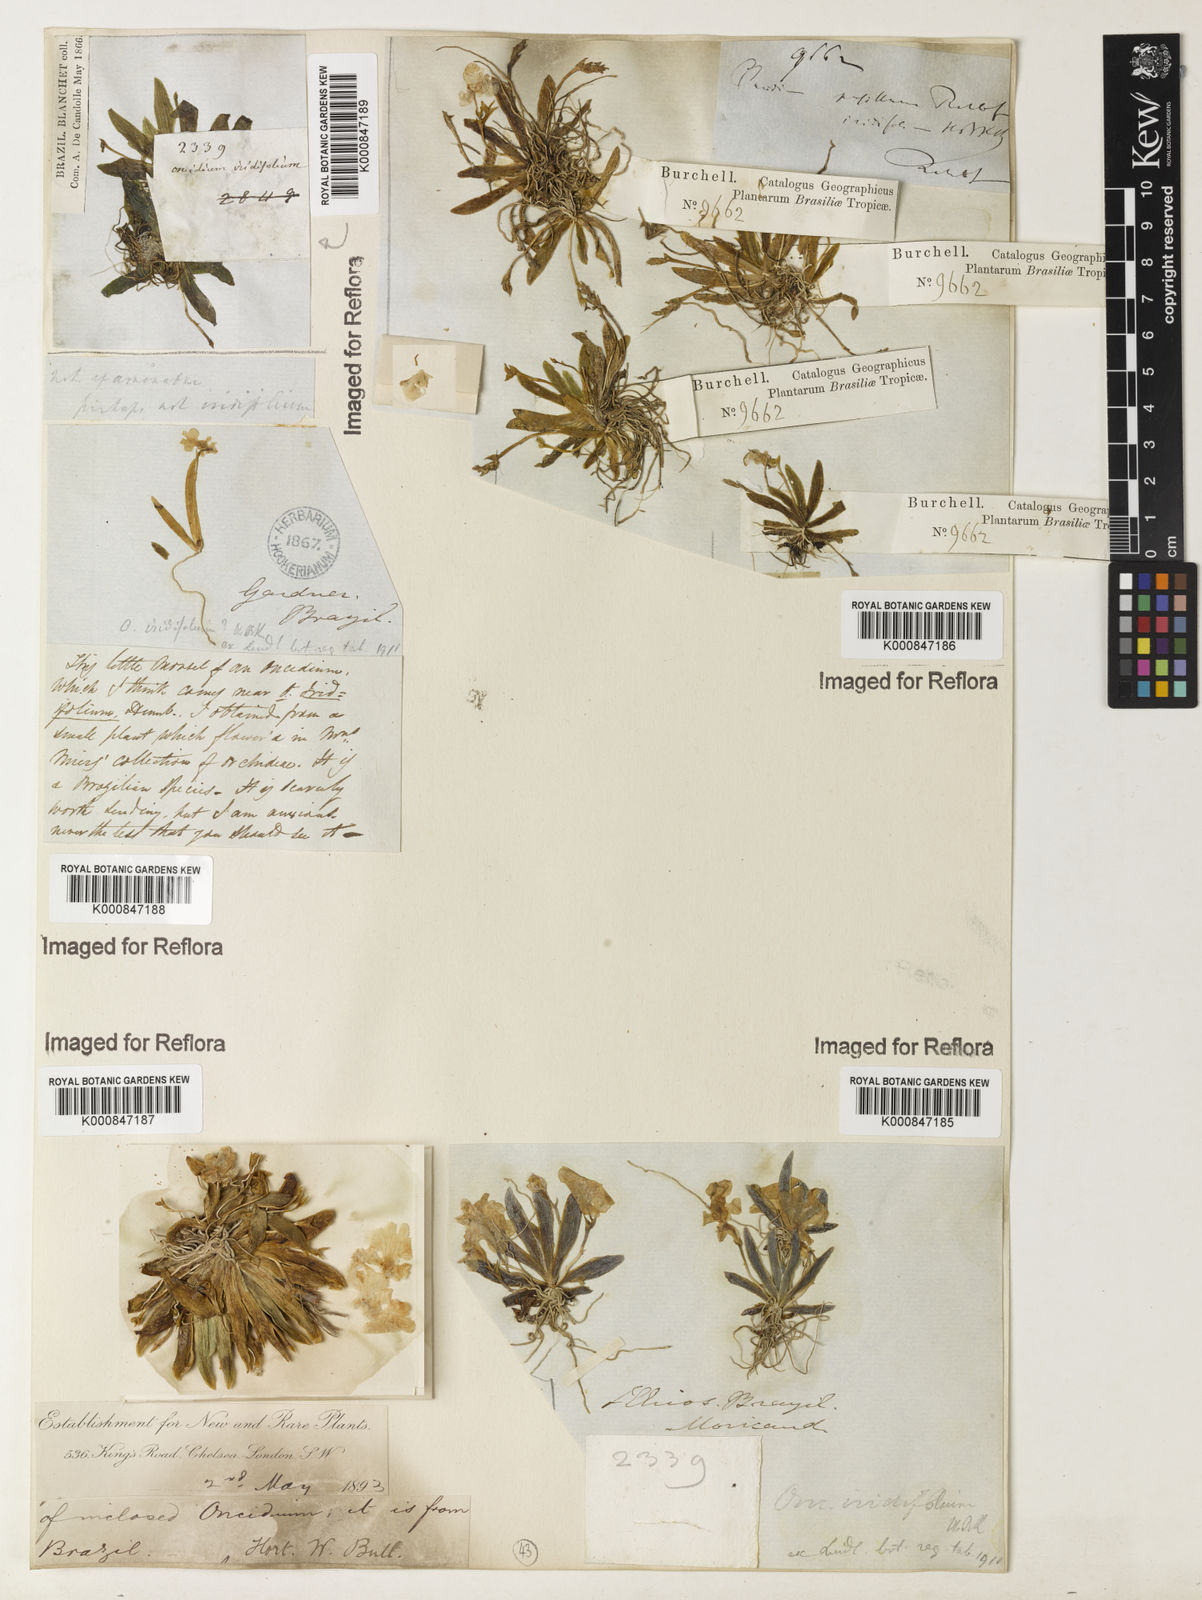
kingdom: Plantae
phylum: Tracheophyta
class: Liliopsida
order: Asparagales
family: Orchidaceae
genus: Oncidium
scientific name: Oncidium
